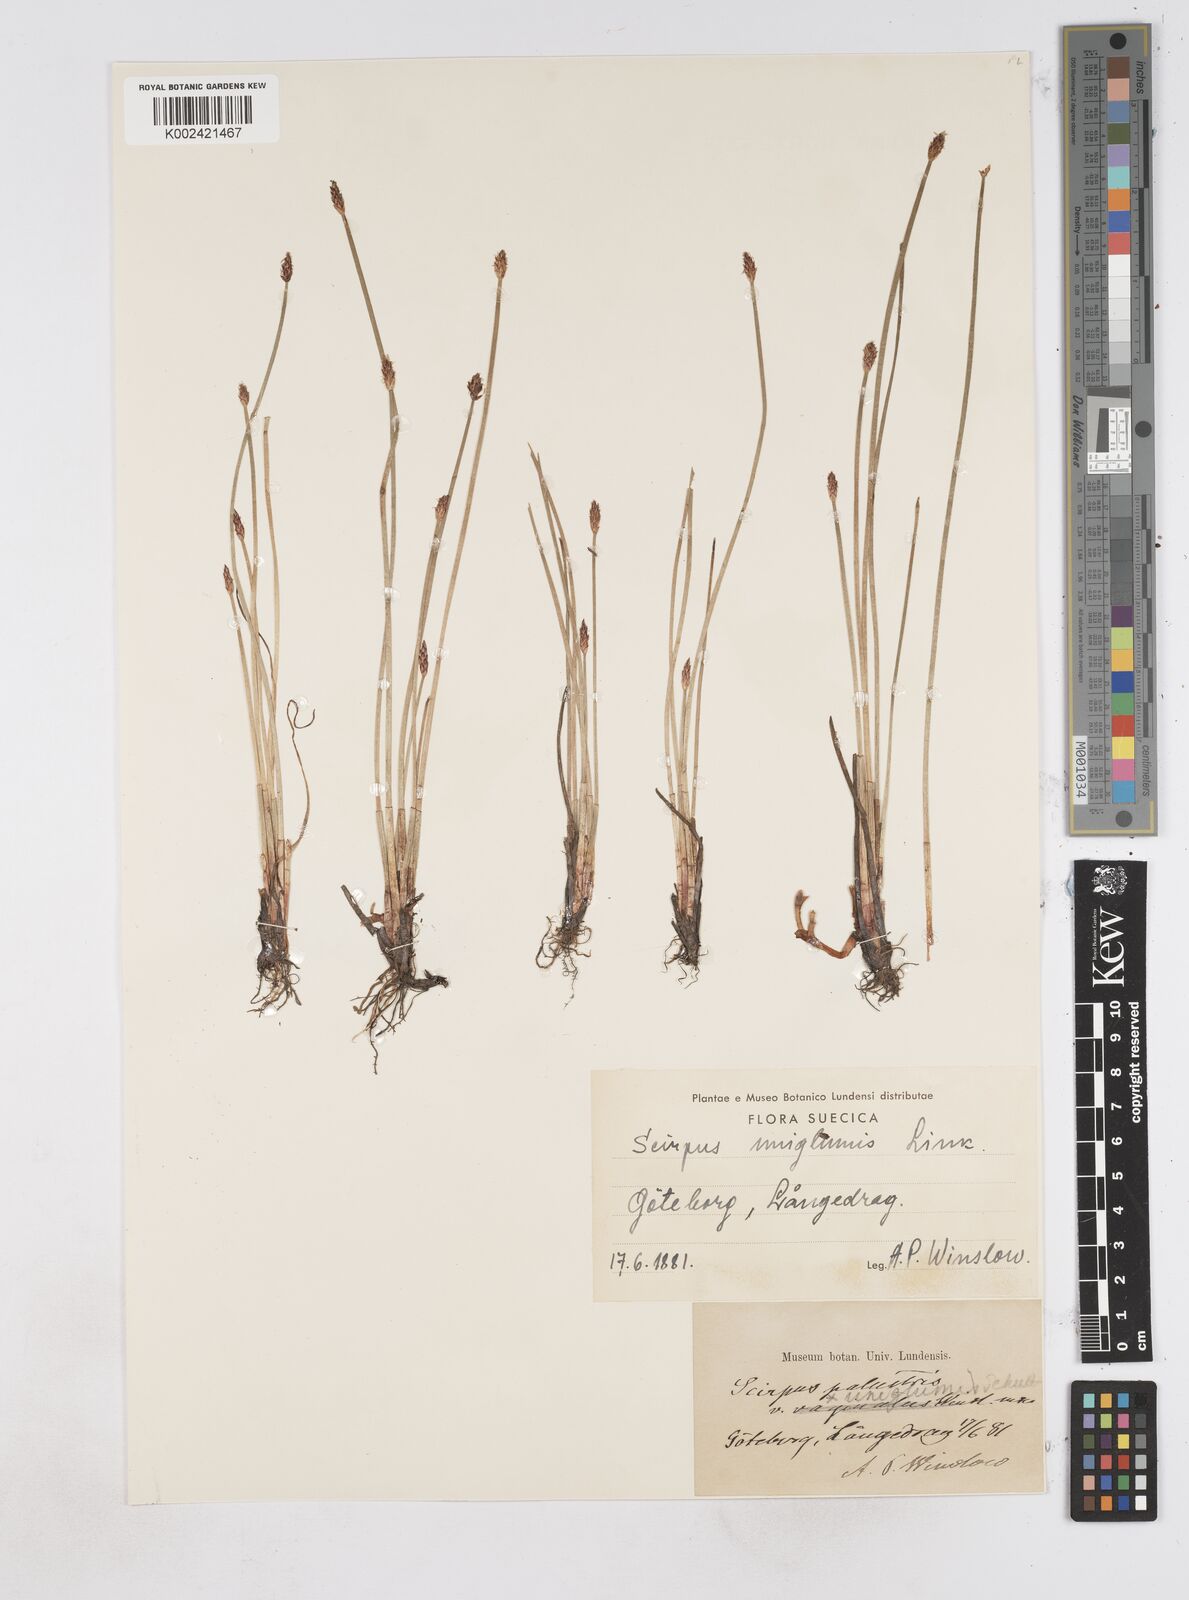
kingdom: Plantae
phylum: Tracheophyta
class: Liliopsida
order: Poales
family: Cyperaceae
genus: Eleocharis
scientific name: Eleocharis uniglumis
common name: Slender spike-rush
